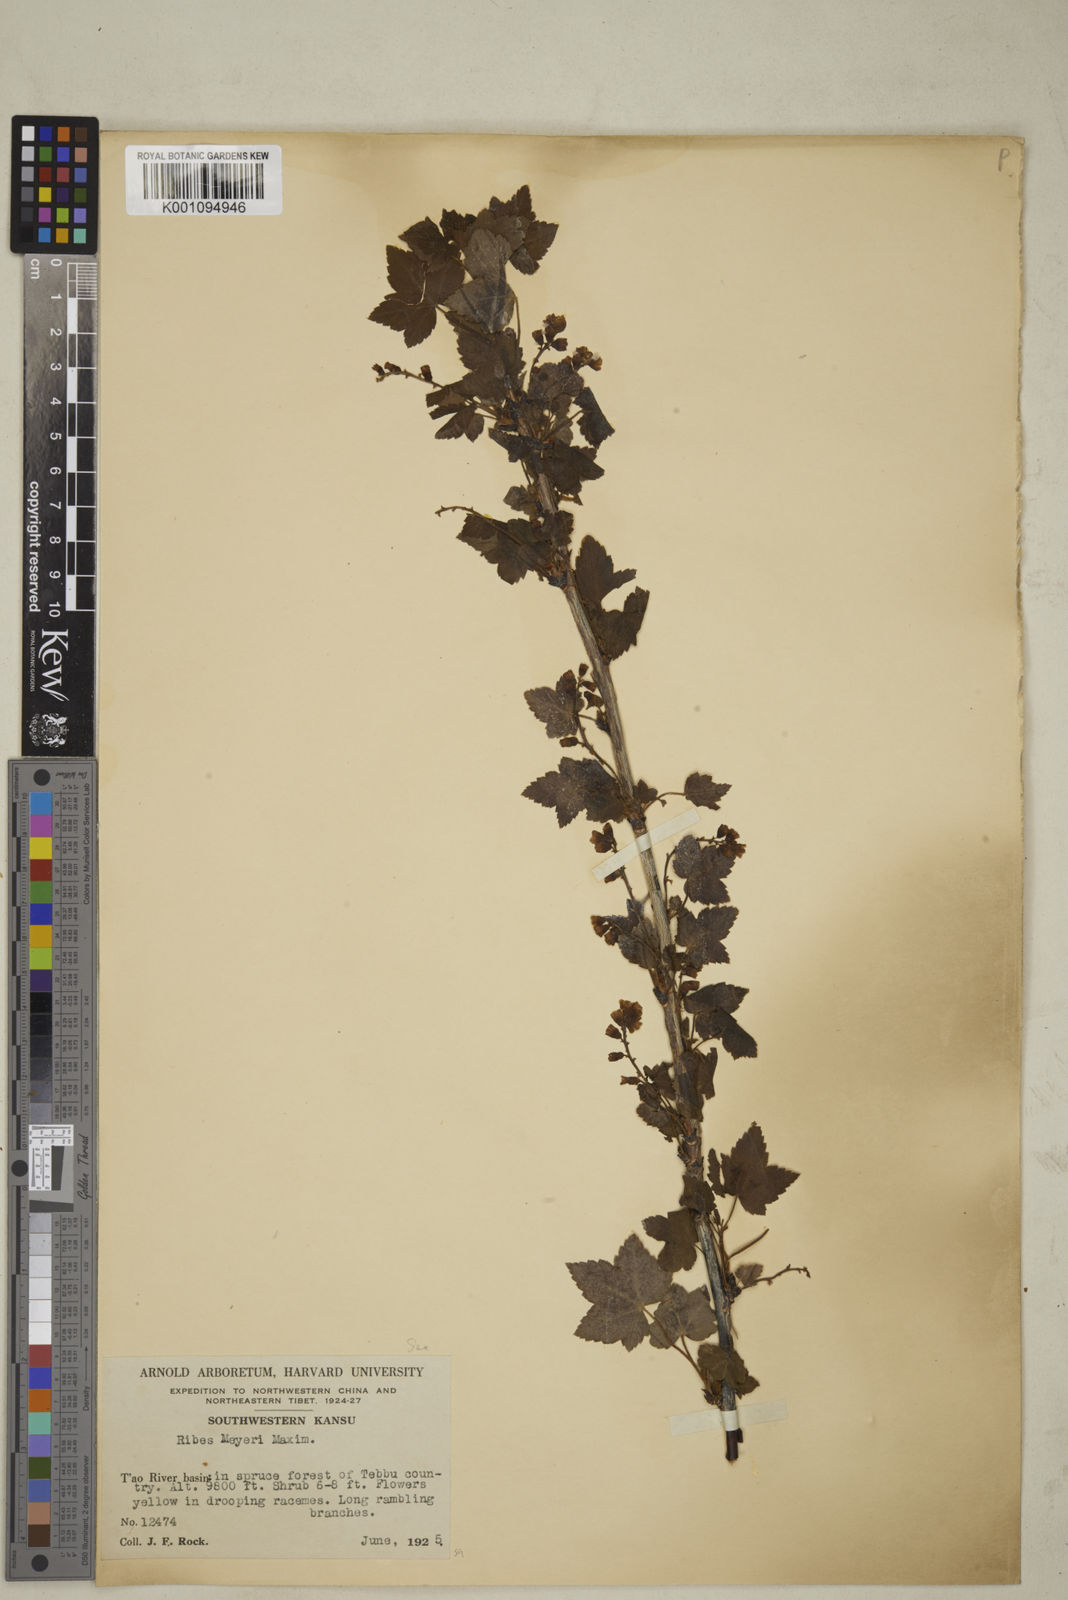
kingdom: Plantae
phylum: Tracheophyta
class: Magnoliopsida
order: Saxifragales
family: Grossulariaceae
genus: Ribes
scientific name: Ribes meyeri
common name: Meyer's currant
